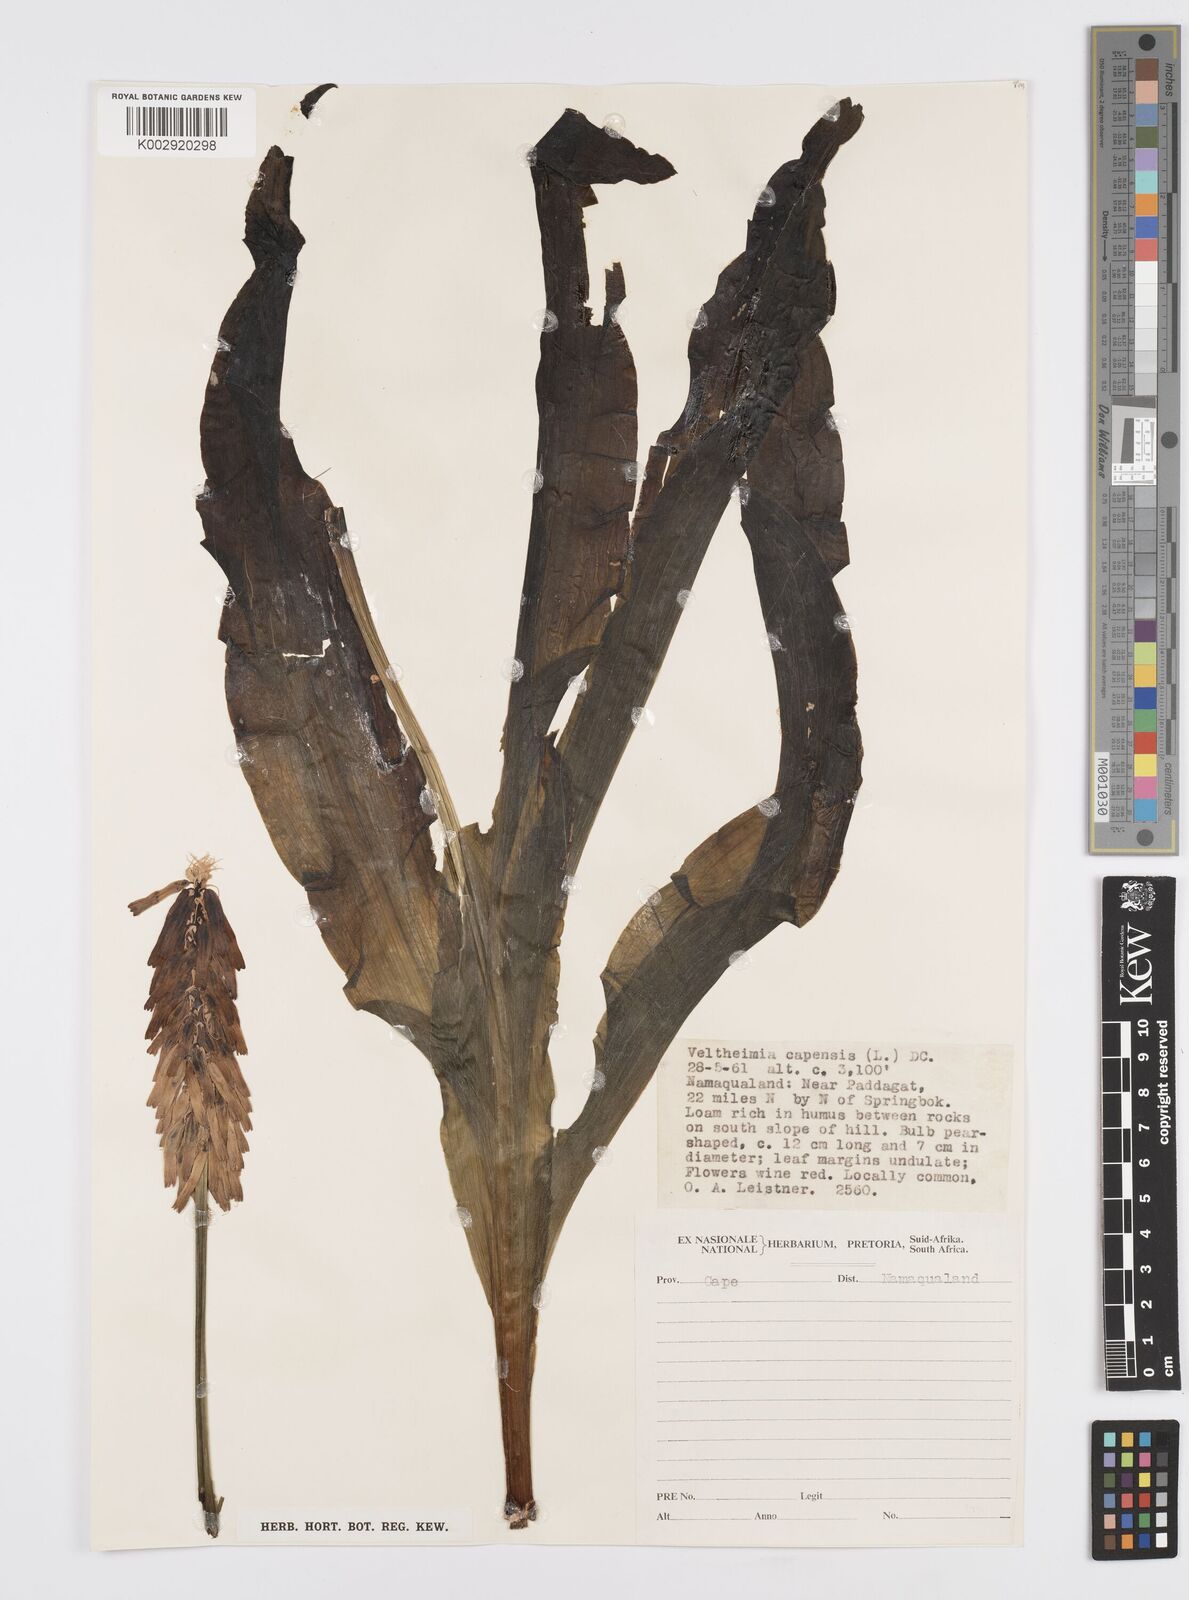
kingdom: Plantae
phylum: Tracheophyta
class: Liliopsida
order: Asparagales
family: Asparagaceae
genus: Veltheimia
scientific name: Veltheimia capensis
